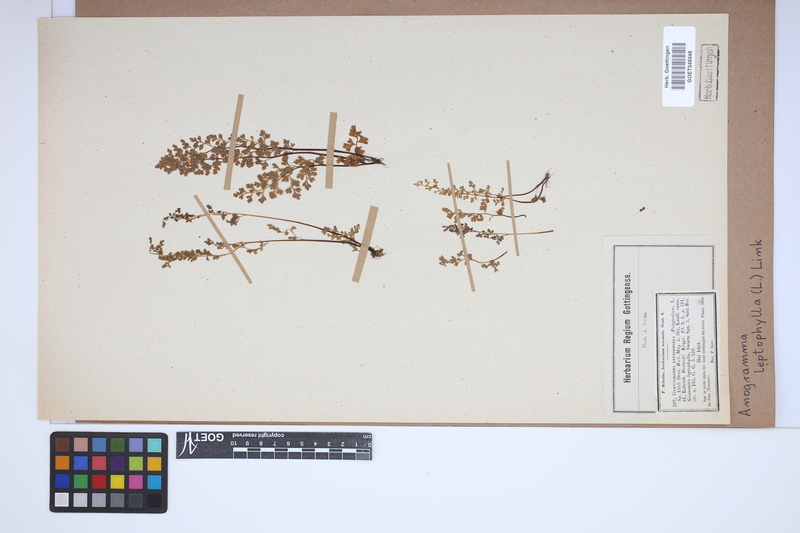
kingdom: Plantae
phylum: Tracheophyta
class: Polypodiopsida
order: Polypodiales
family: Pteridaceae
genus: Anogramma
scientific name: Anogramma leptophylla
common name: Jersey fern
